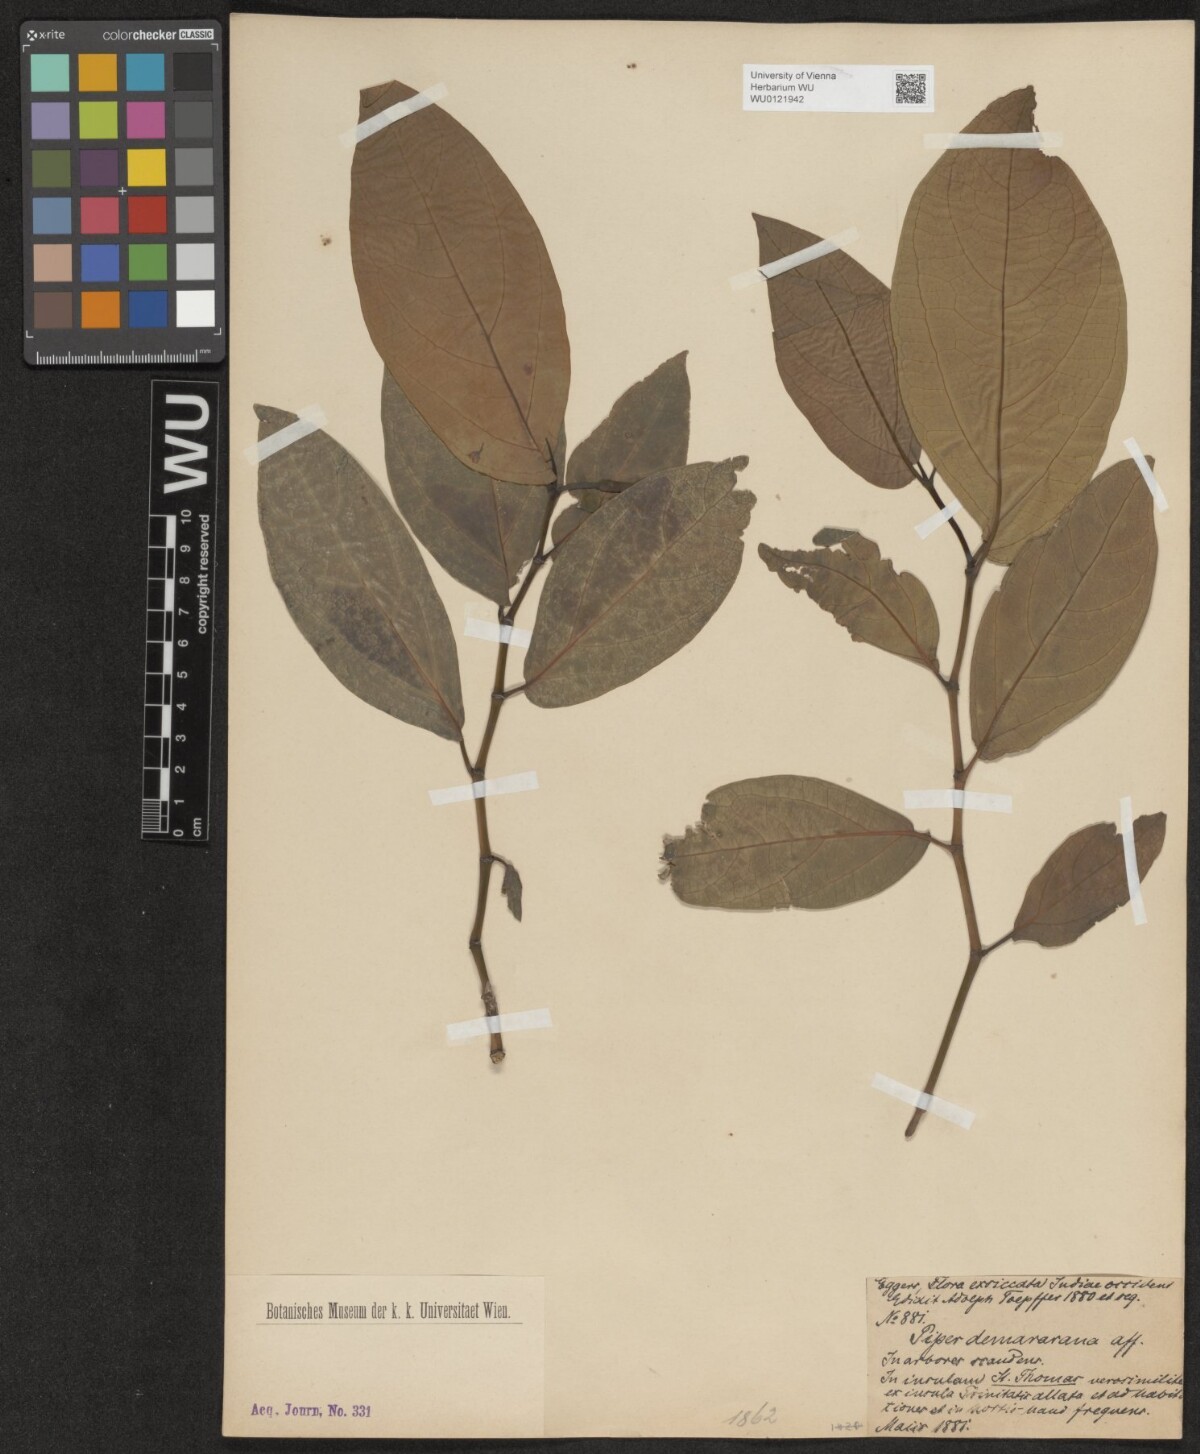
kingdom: Plantae
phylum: Tracheophyta
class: Magnoliopsida
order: Piperales
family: Piperaceae
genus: Piper
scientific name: Piper demeraranum
